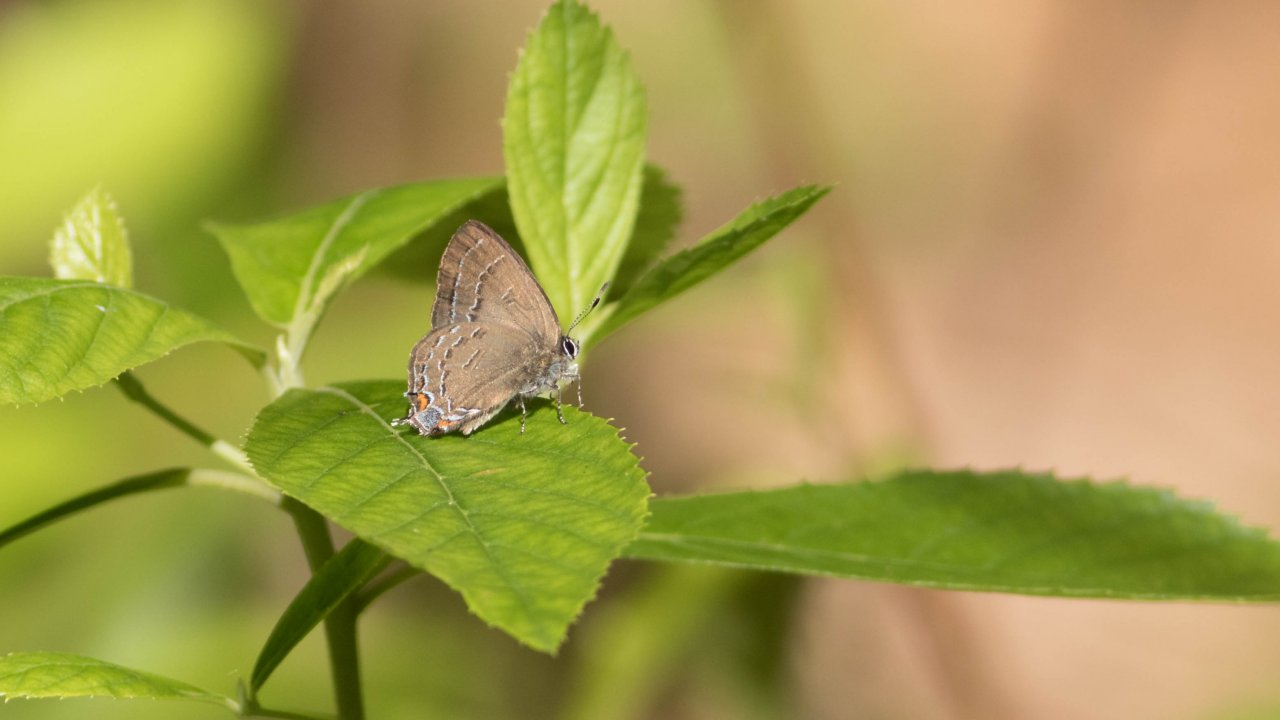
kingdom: Animalia
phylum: Arthropoda
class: Insecta
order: Lepidoptera
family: Lycaenidae
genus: Satyrium
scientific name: Satyrium calanus
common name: Banded Hairstreak
